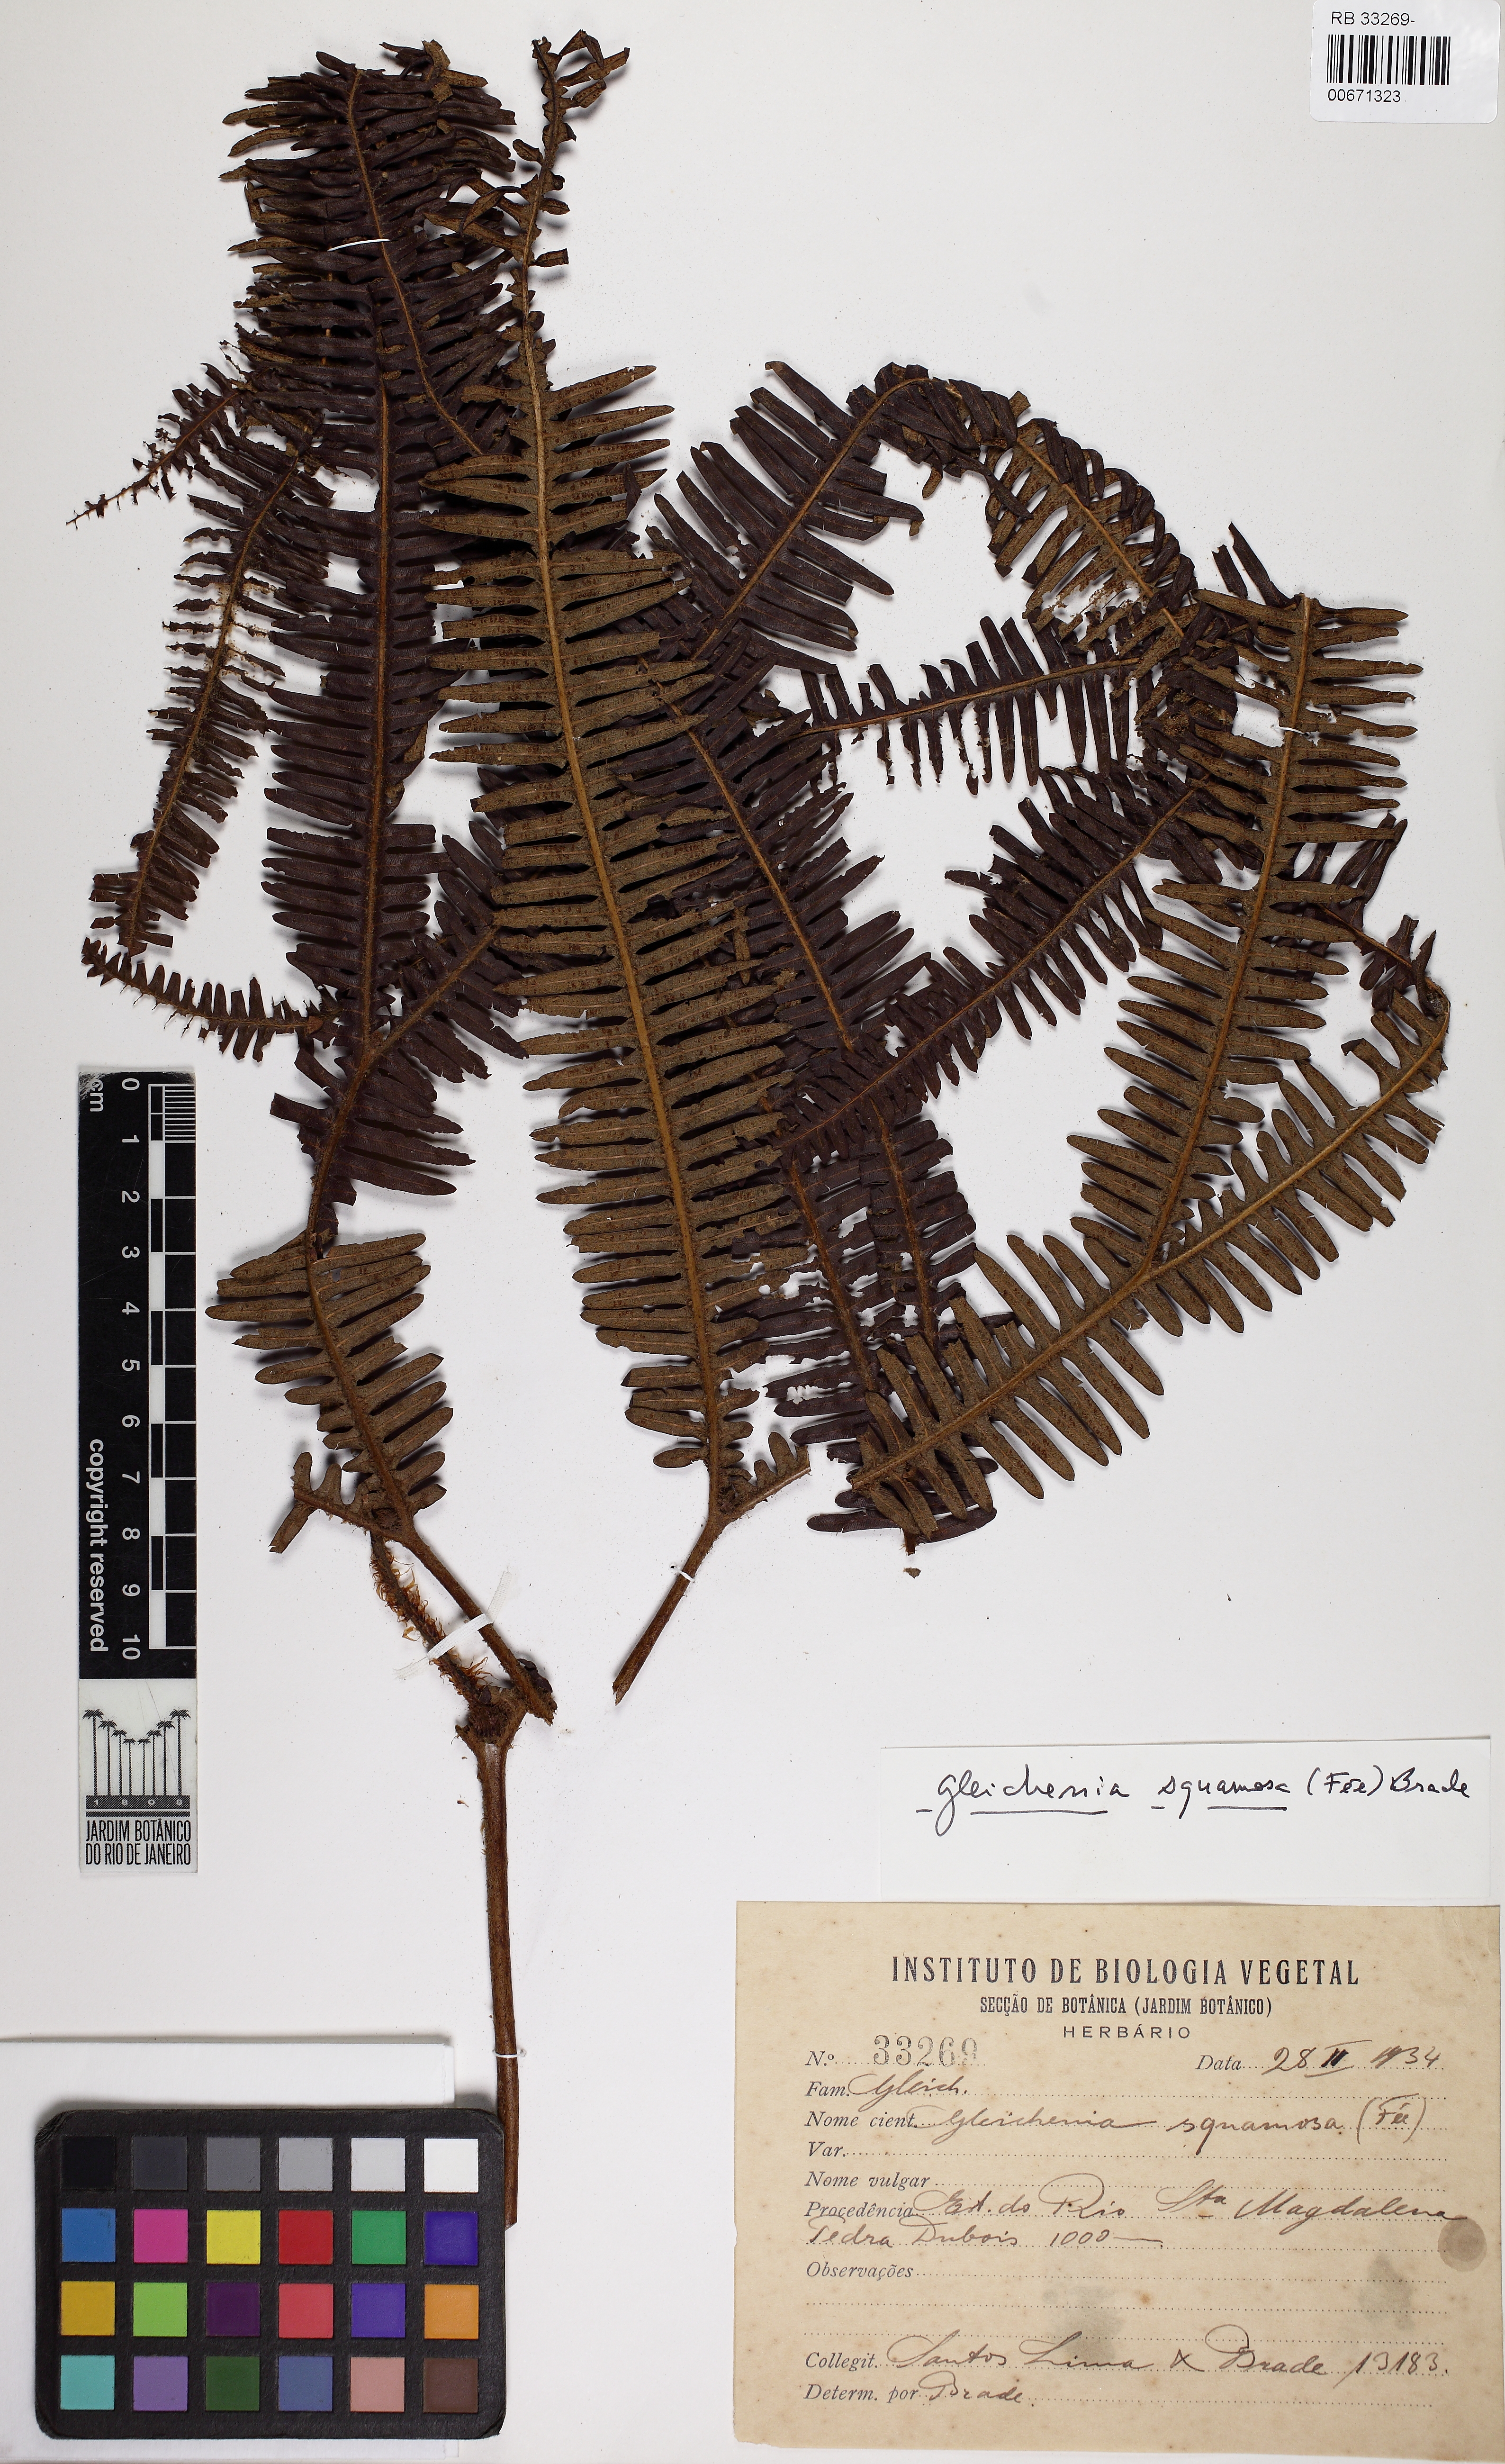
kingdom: Plantae
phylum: Tracheophyta
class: Polypodiopsida
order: Gleicheniales
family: Gleicheniaceae
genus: Sticherus
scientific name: Sticherus squamosus
